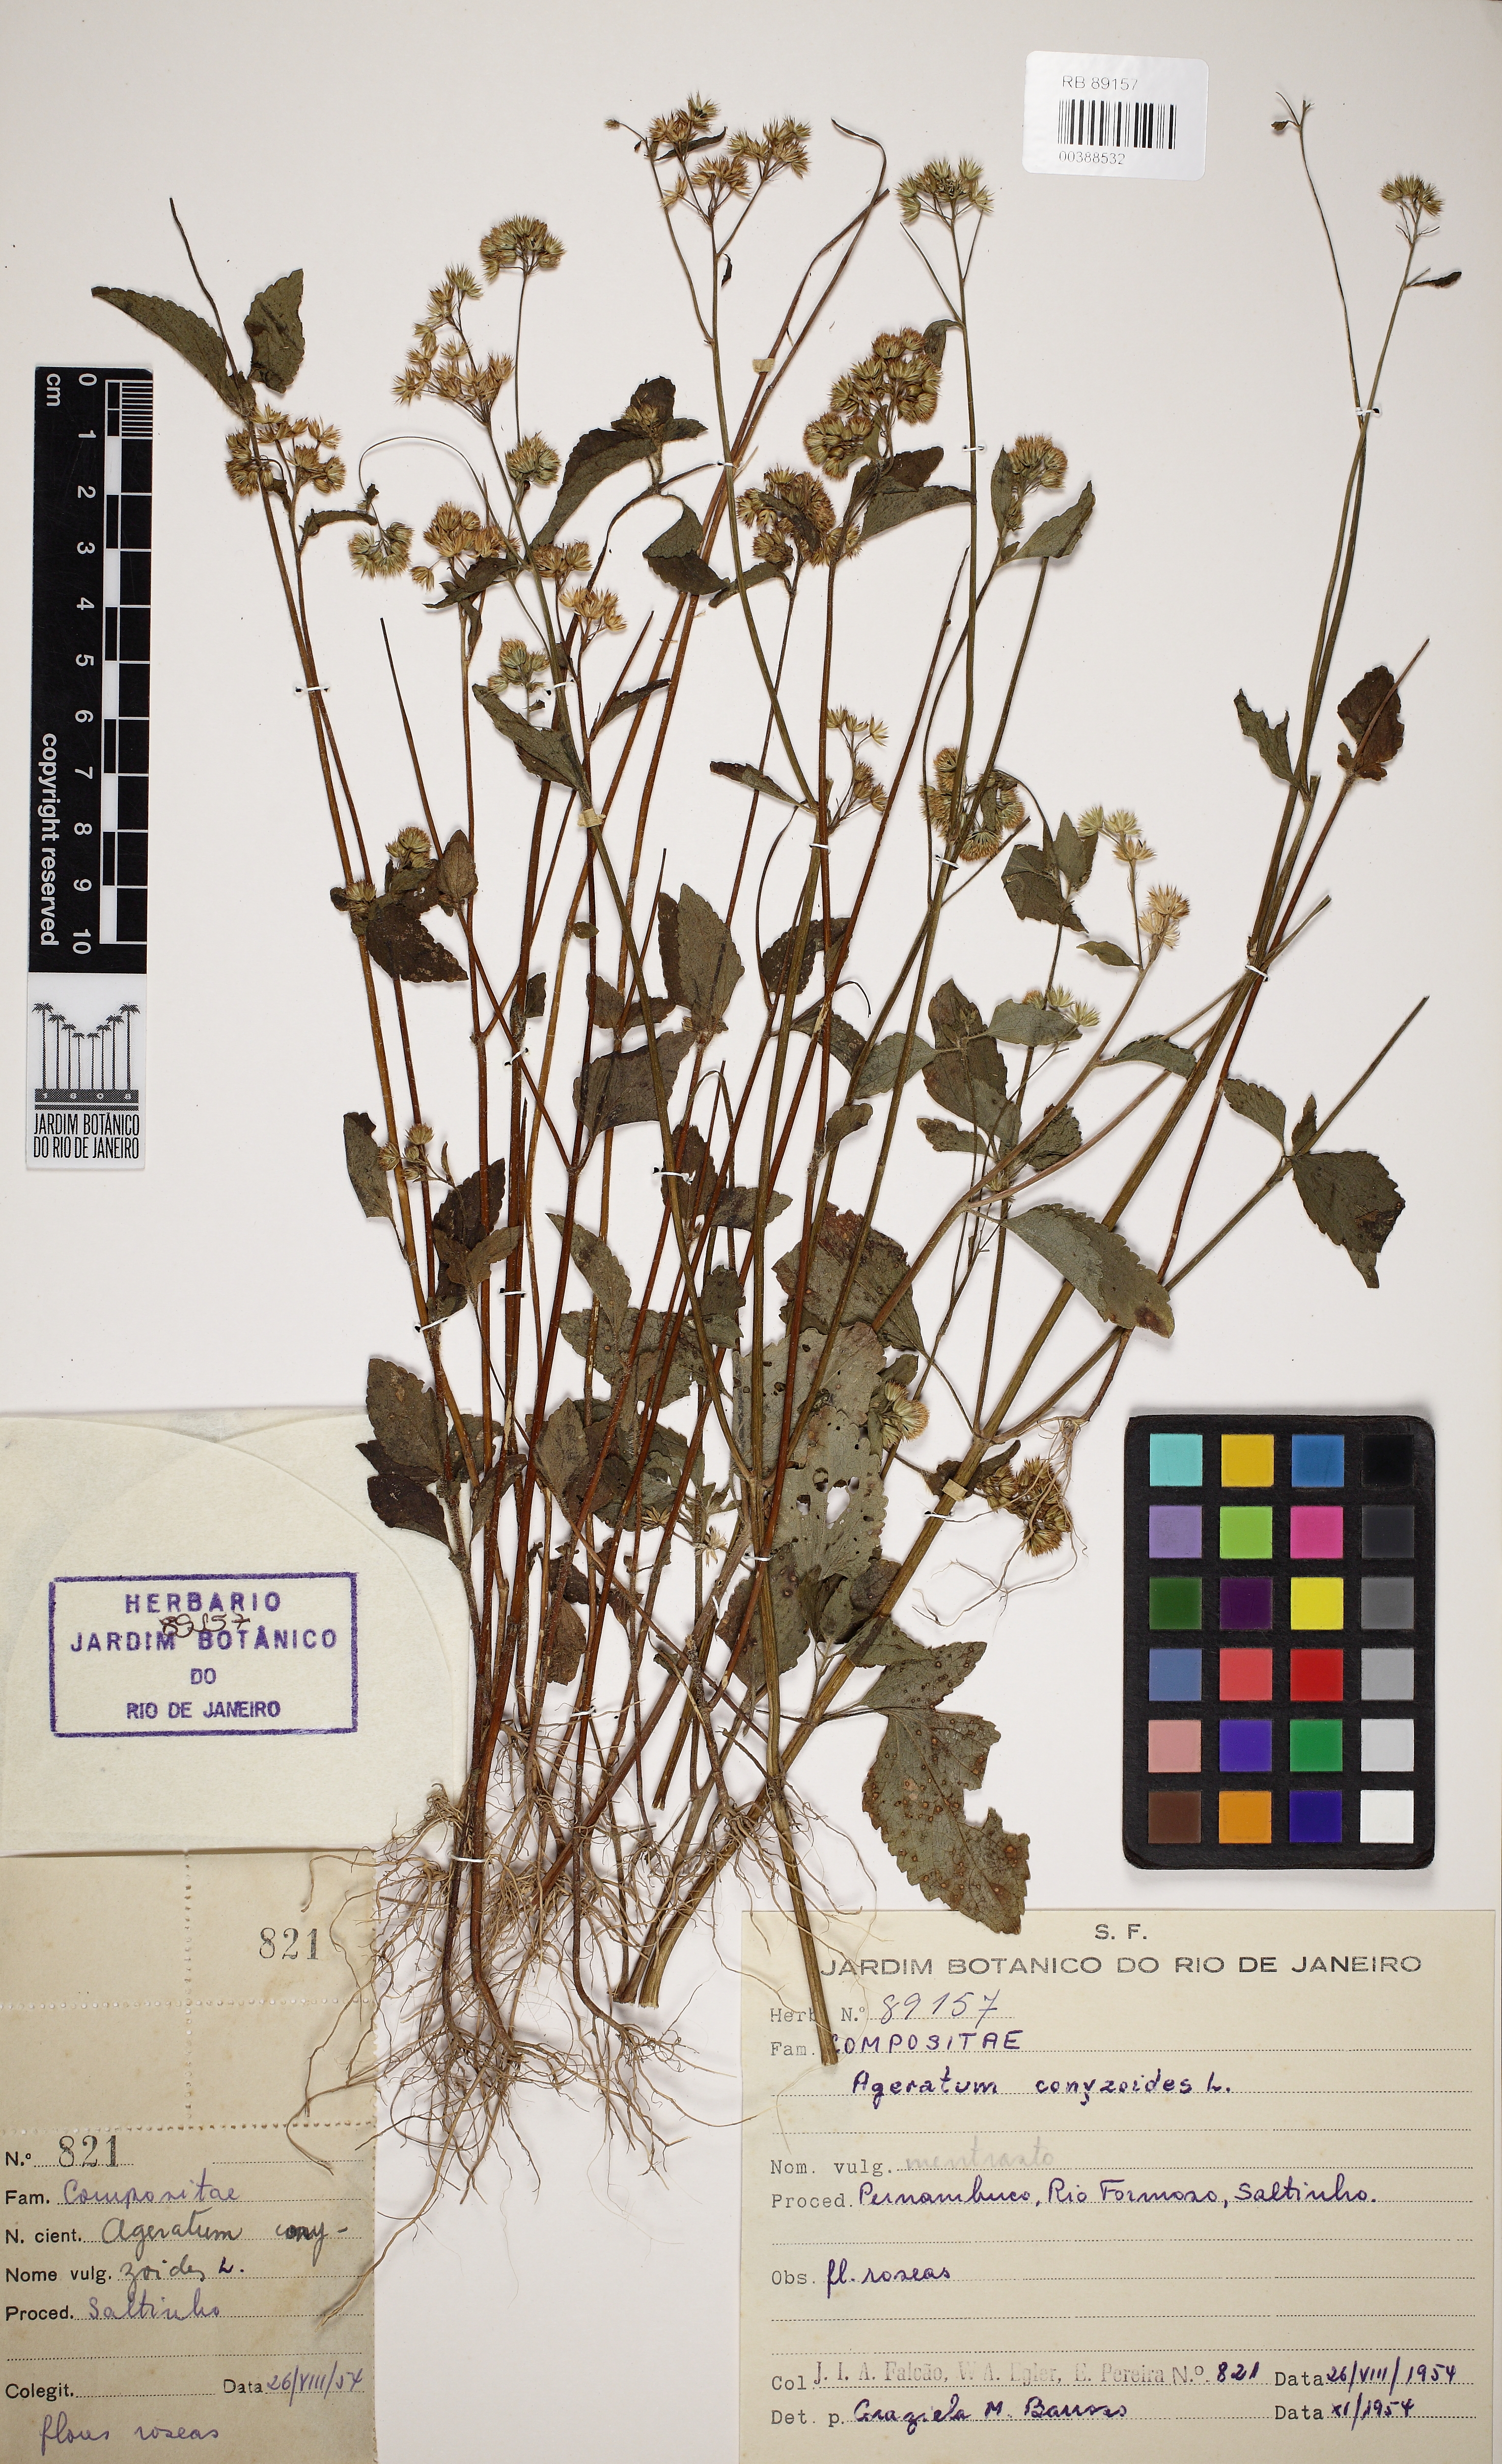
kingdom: Plantae
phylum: Tracheophyta
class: Magnoliopsida
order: Asterales
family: Asteraceae
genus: Ageratum
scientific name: Ageratum conyzoides
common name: Tropical whiteweed
